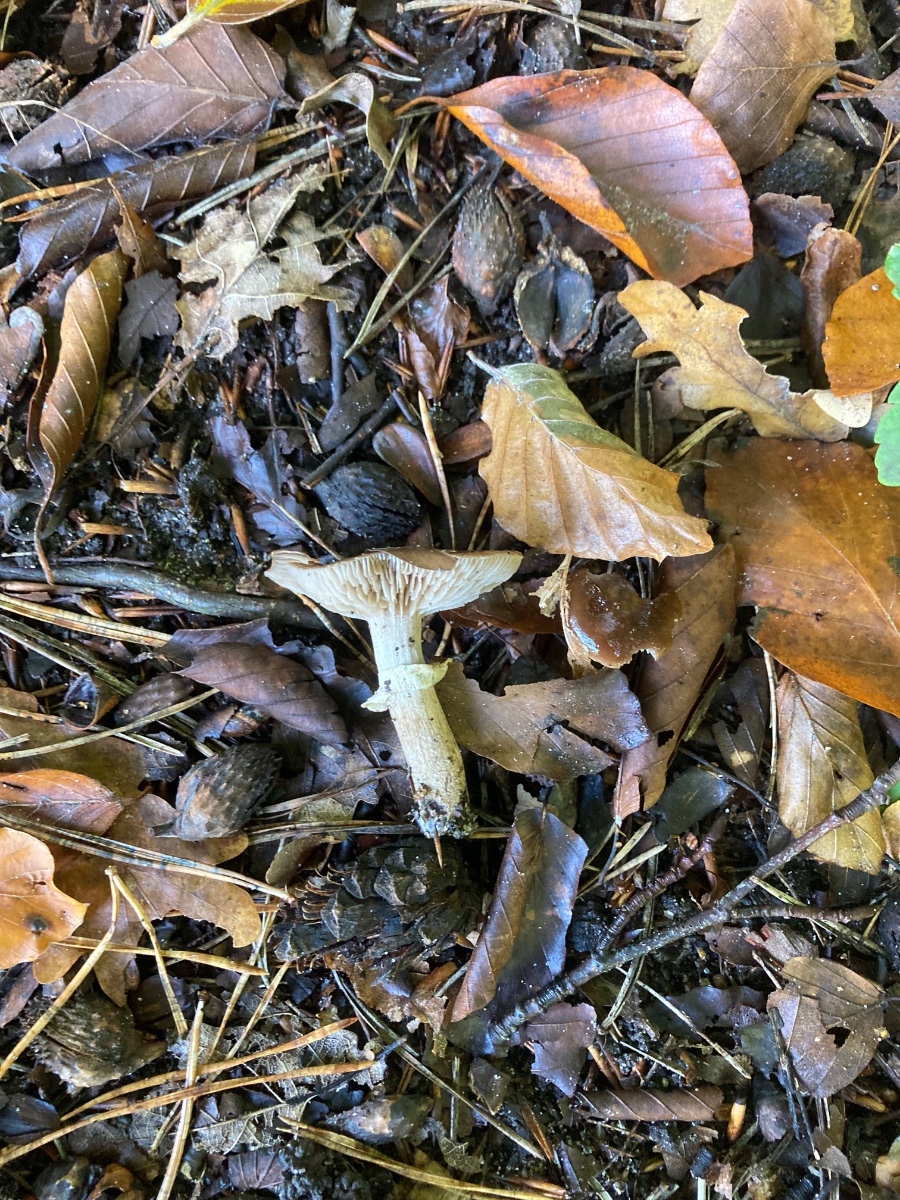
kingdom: Fungi
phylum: Basidiomycota
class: Agaricomycetes
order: Agaricales
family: Tubariaceae
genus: Cyclocybe
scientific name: Cyclocybe erebia
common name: mørk agerhat
